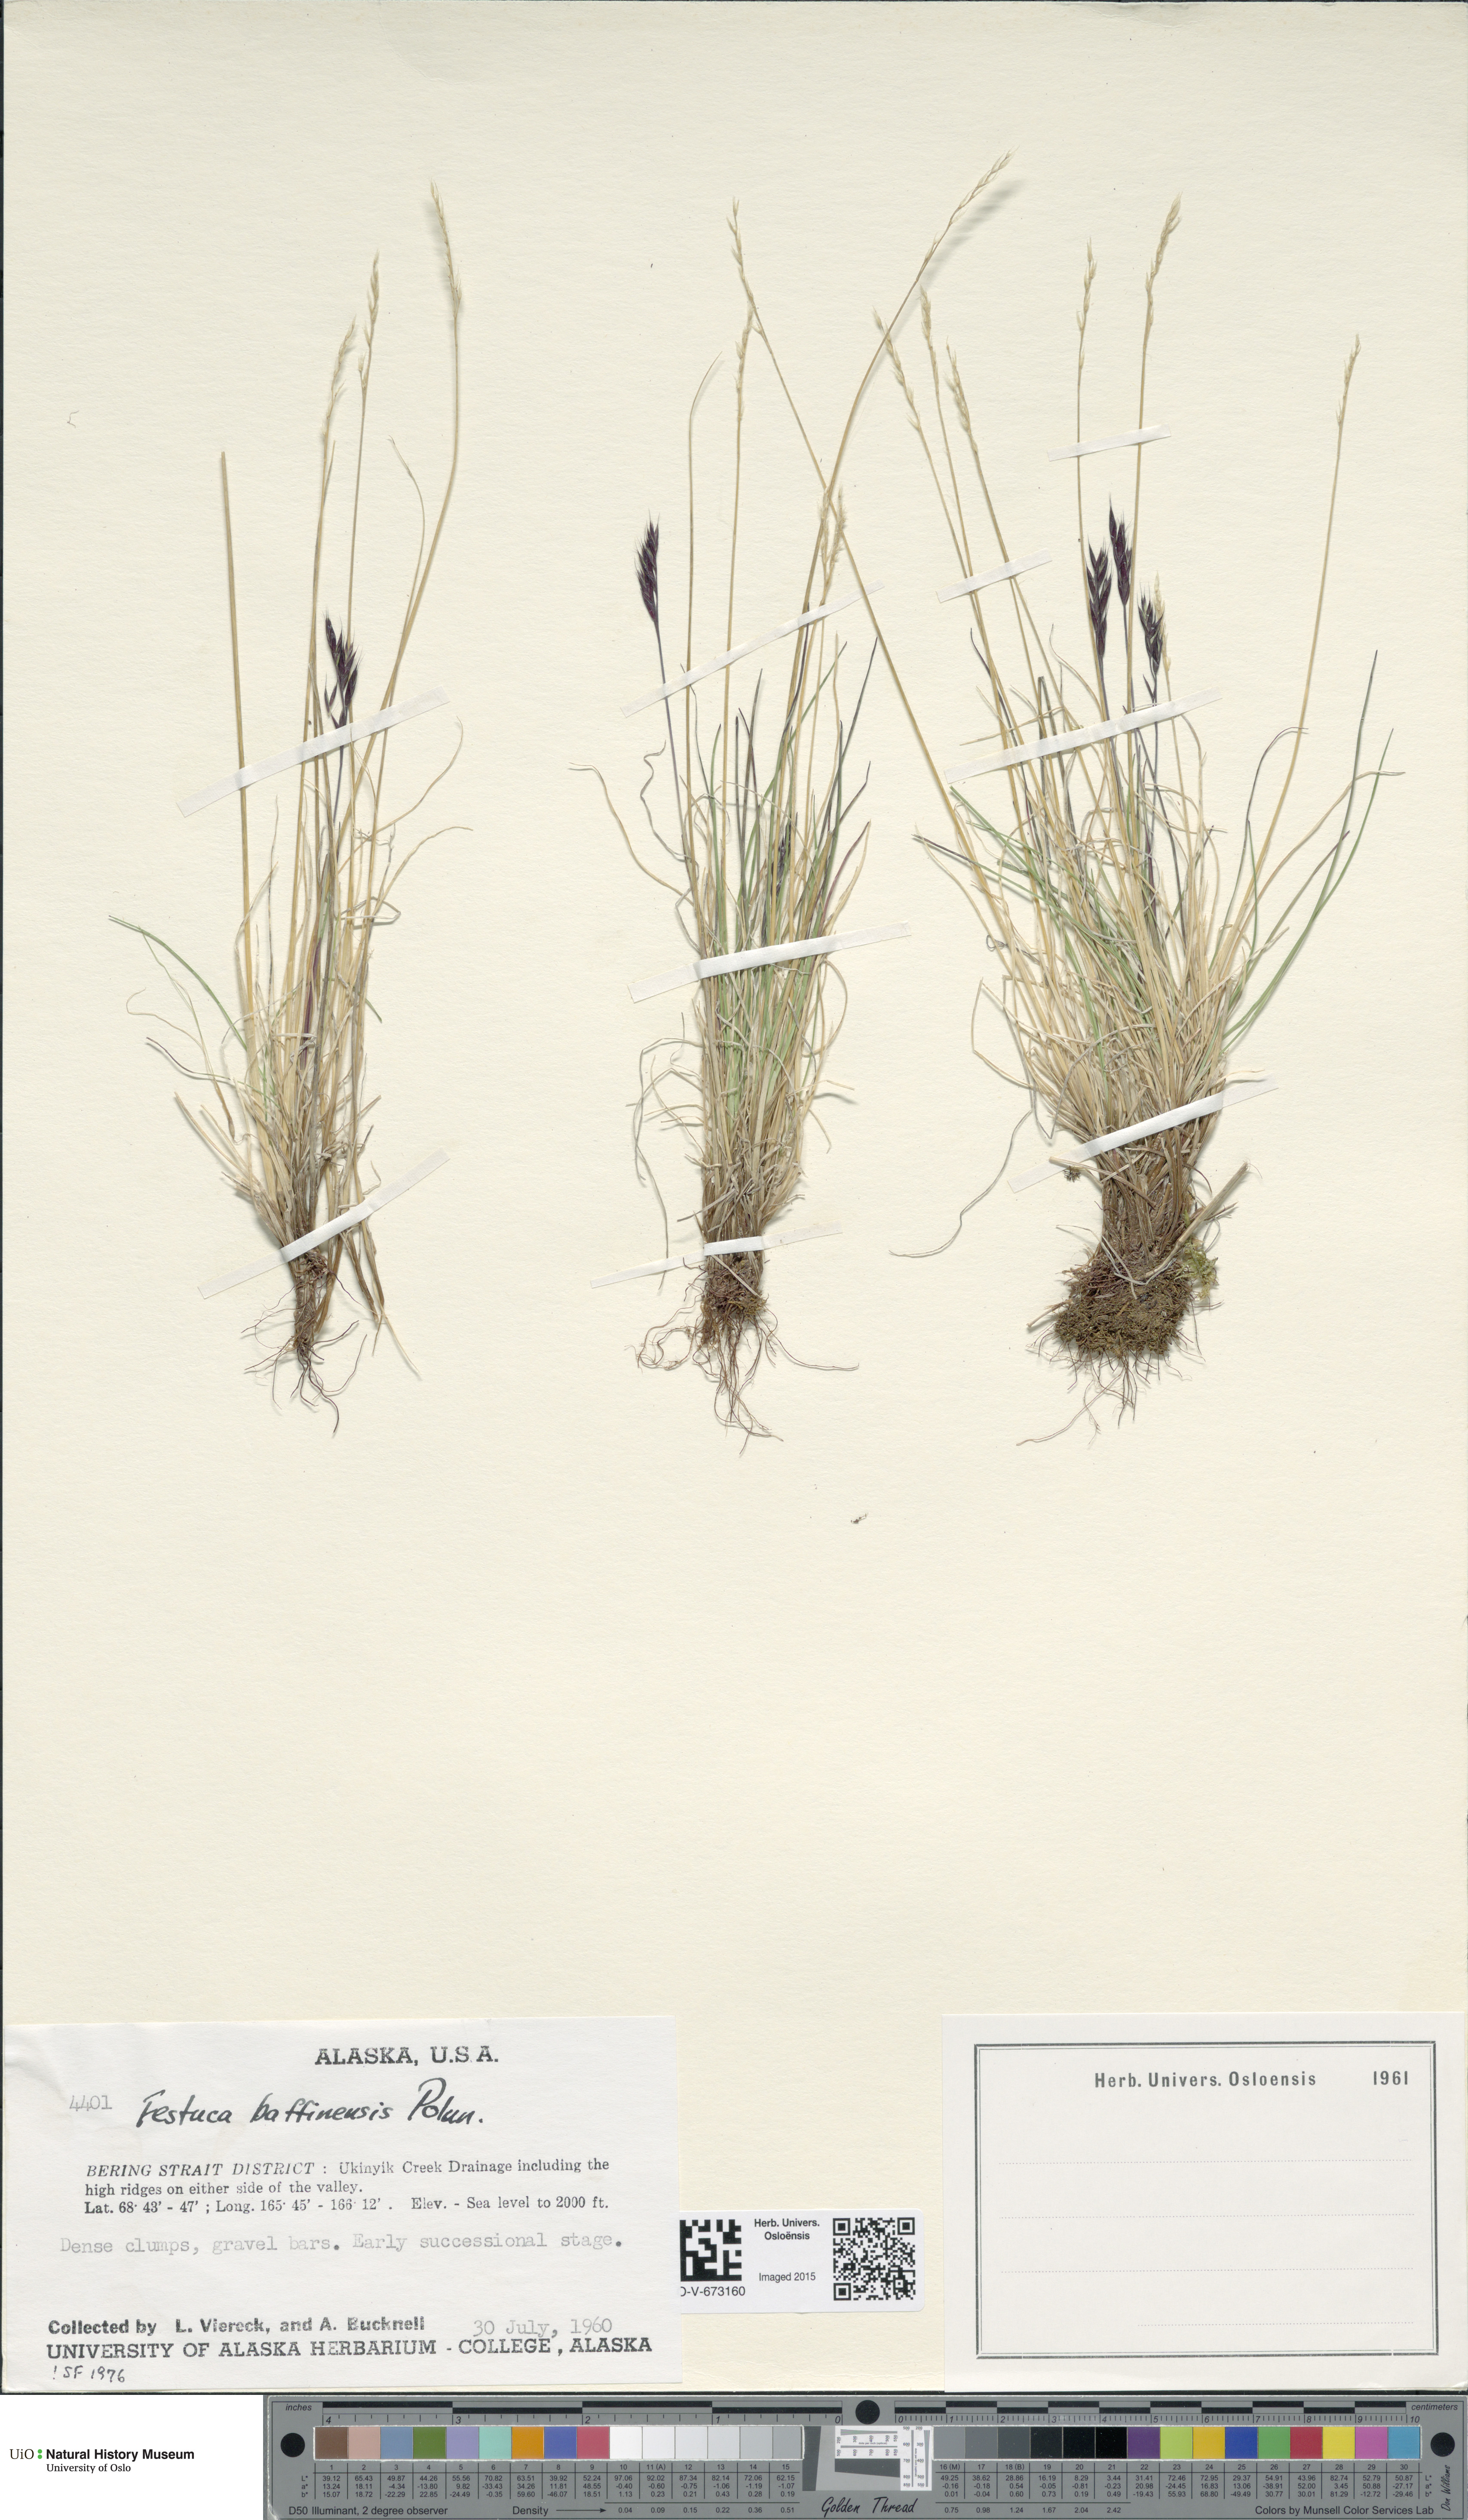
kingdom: Plantae
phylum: Tracheophyta
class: Liliopsida
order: Poales
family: Poaceae
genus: Festuca
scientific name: Festuca baffinensis
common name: Baffin island fescue
